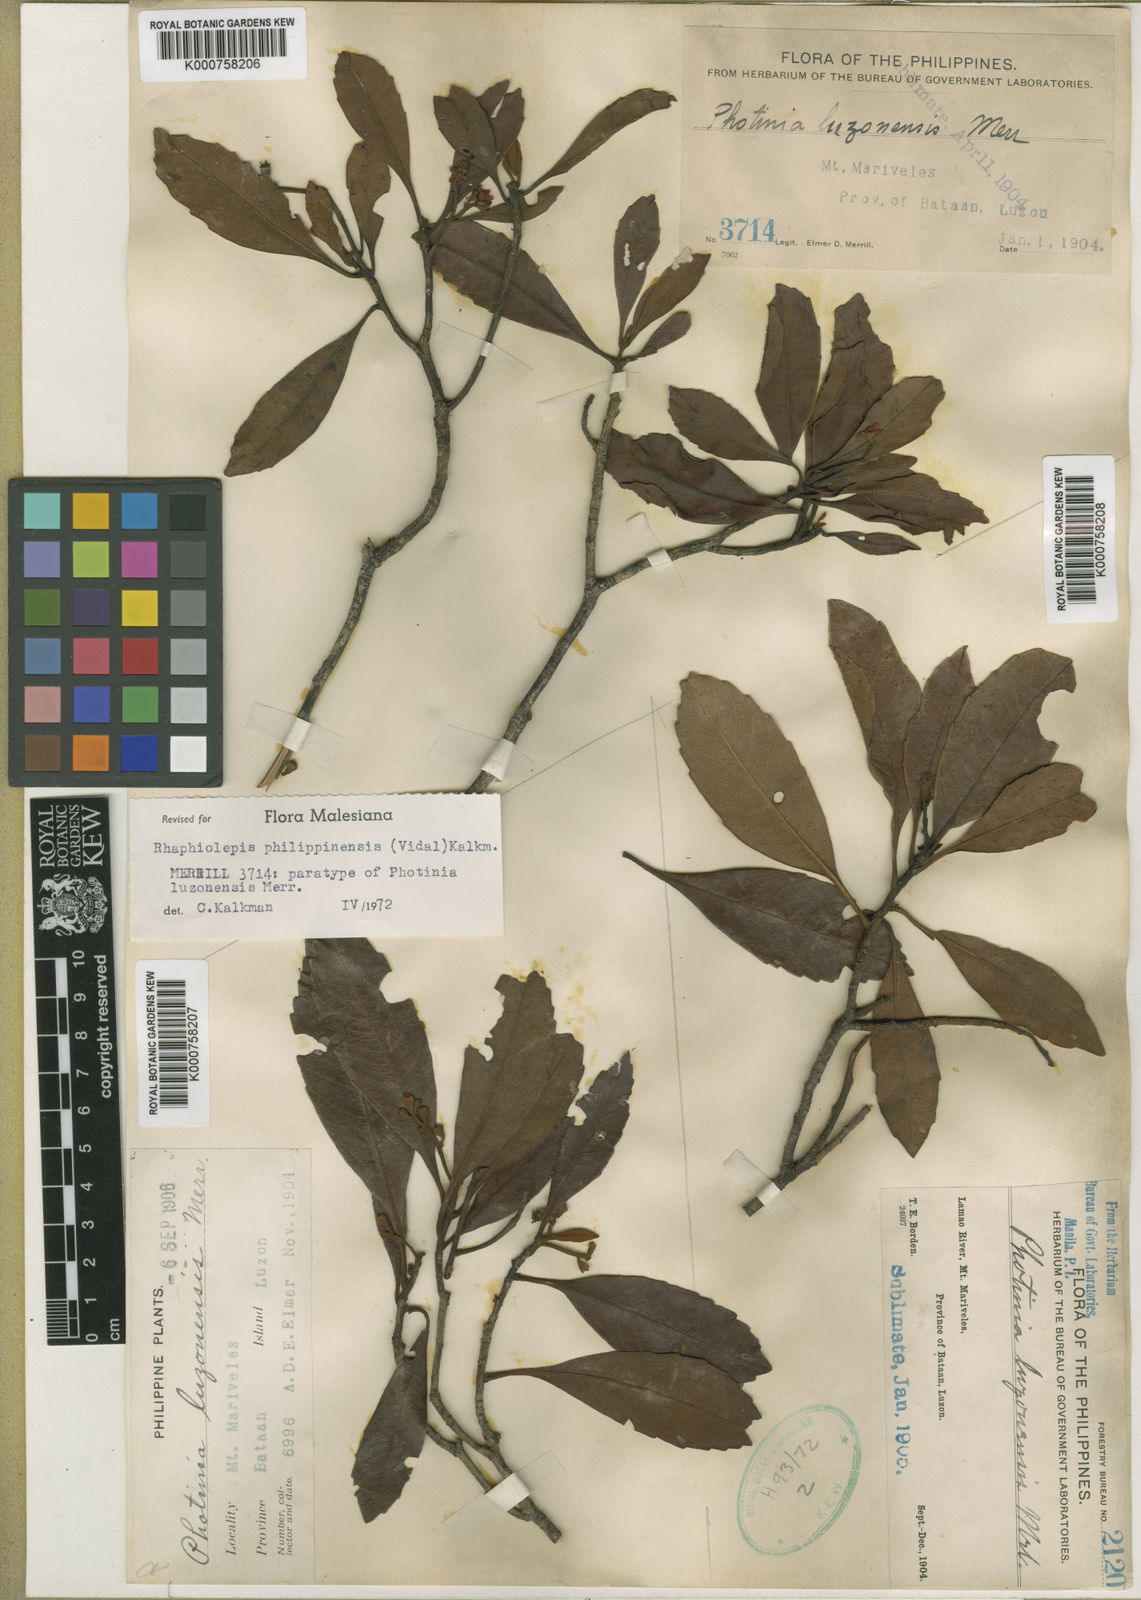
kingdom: Plantae
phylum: Tracheophyta
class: Magnoliopsida
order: Rosales
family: Rosaceae
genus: Rhaphiolepis
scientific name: Rhaphiolepis philippinensis
